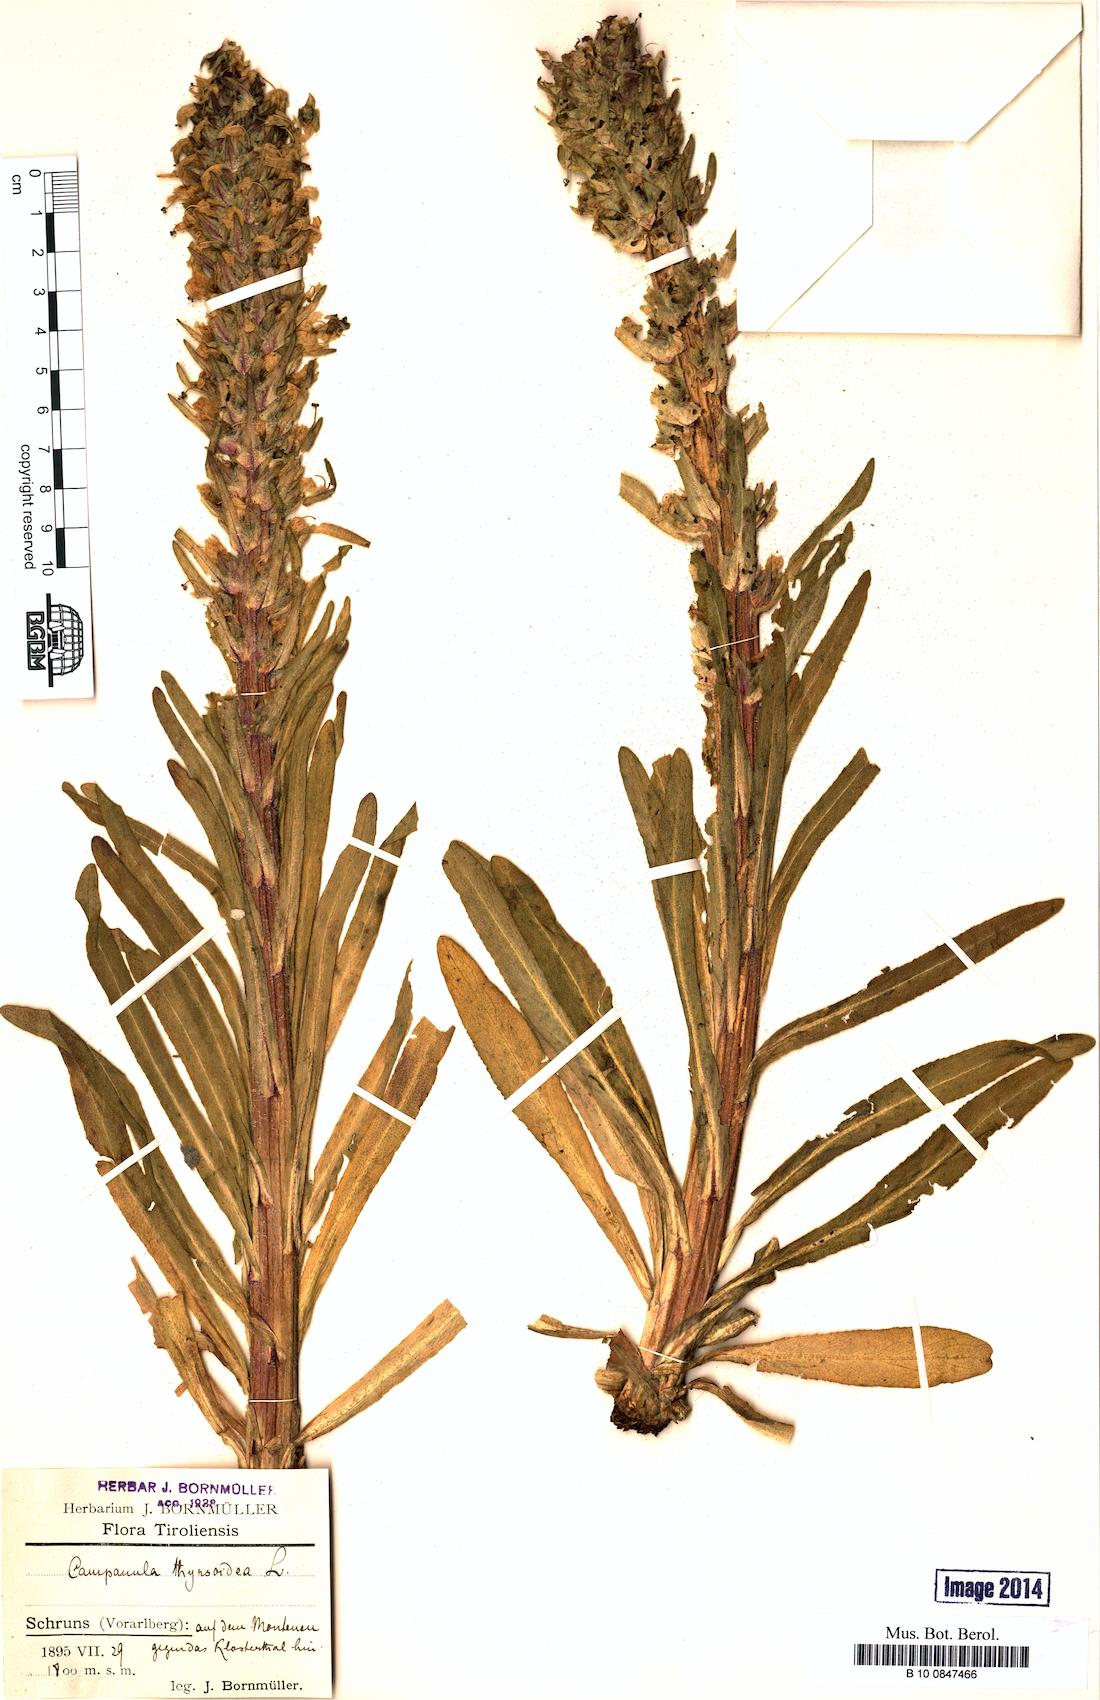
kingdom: Plantae
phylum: Tracheophyta
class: Magnoliopsida
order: Asterales
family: Campanulaceae
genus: Campanula
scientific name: Campanula thyrsoides
